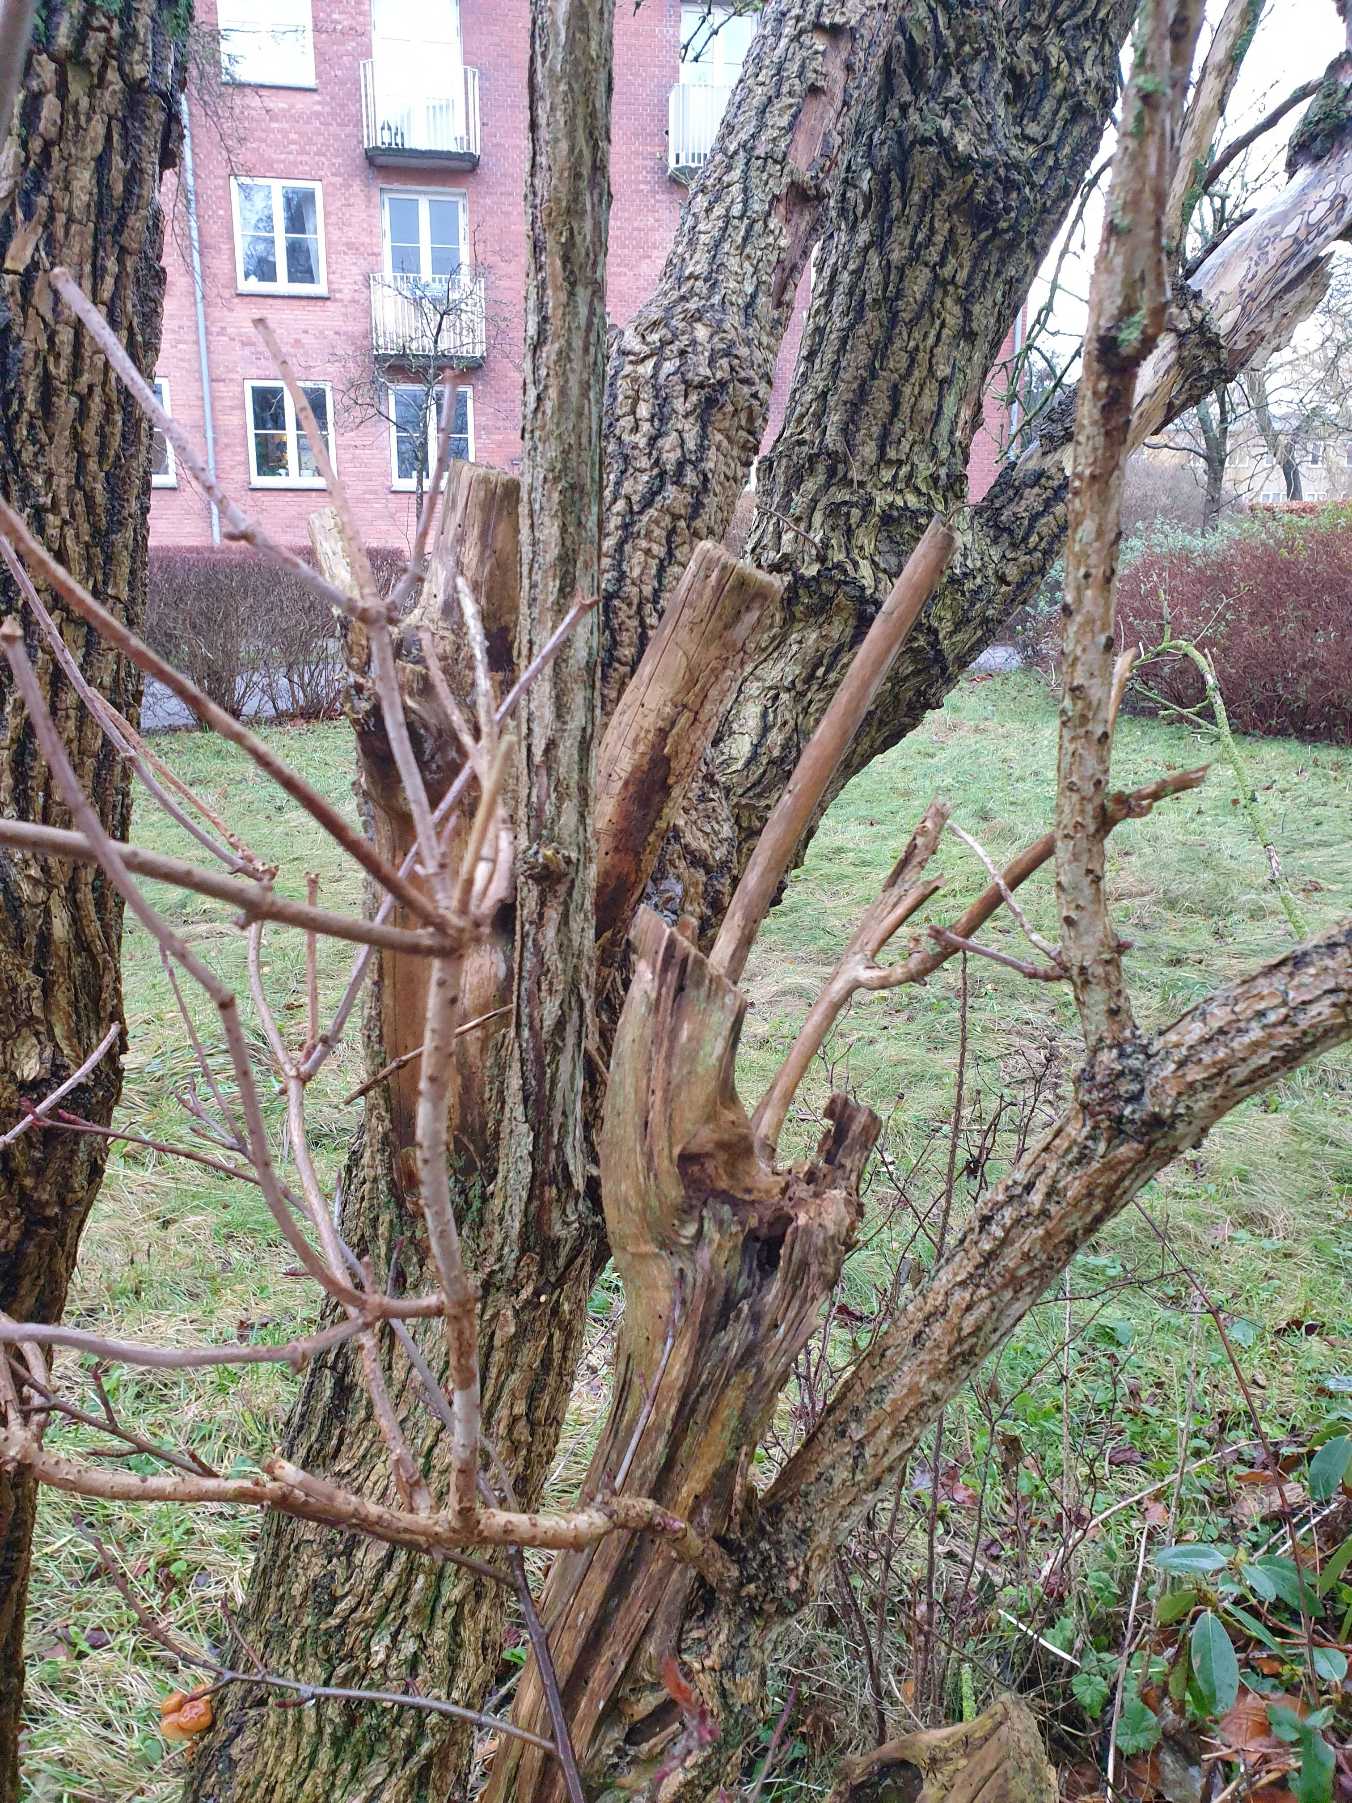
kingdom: Plantae
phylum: Tracheophyta
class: Magnoliopsida
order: Dipsacales
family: Viburnaceae
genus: Sambucus
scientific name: Sambucus nigra
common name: Almindelig hyld
